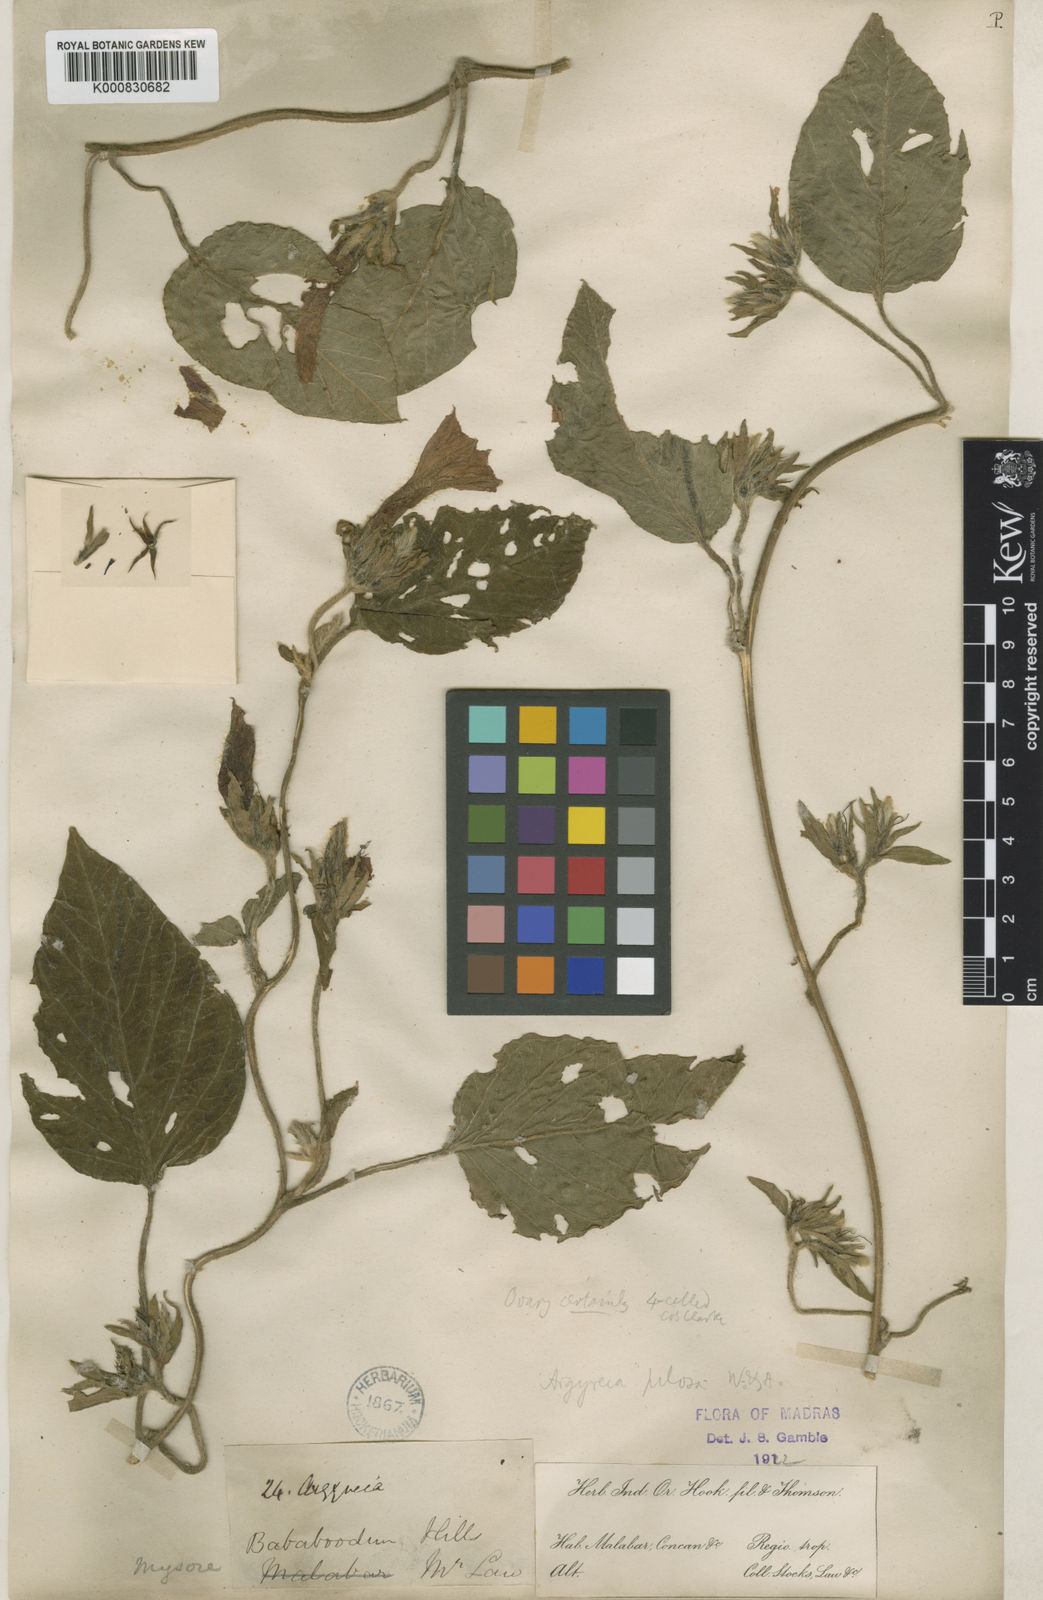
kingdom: Plantae
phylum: Tracheophyta
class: Magnoliopsida
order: Solanales
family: Convolvulaceae
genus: Argyreia
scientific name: Argyreia srinivasanii
